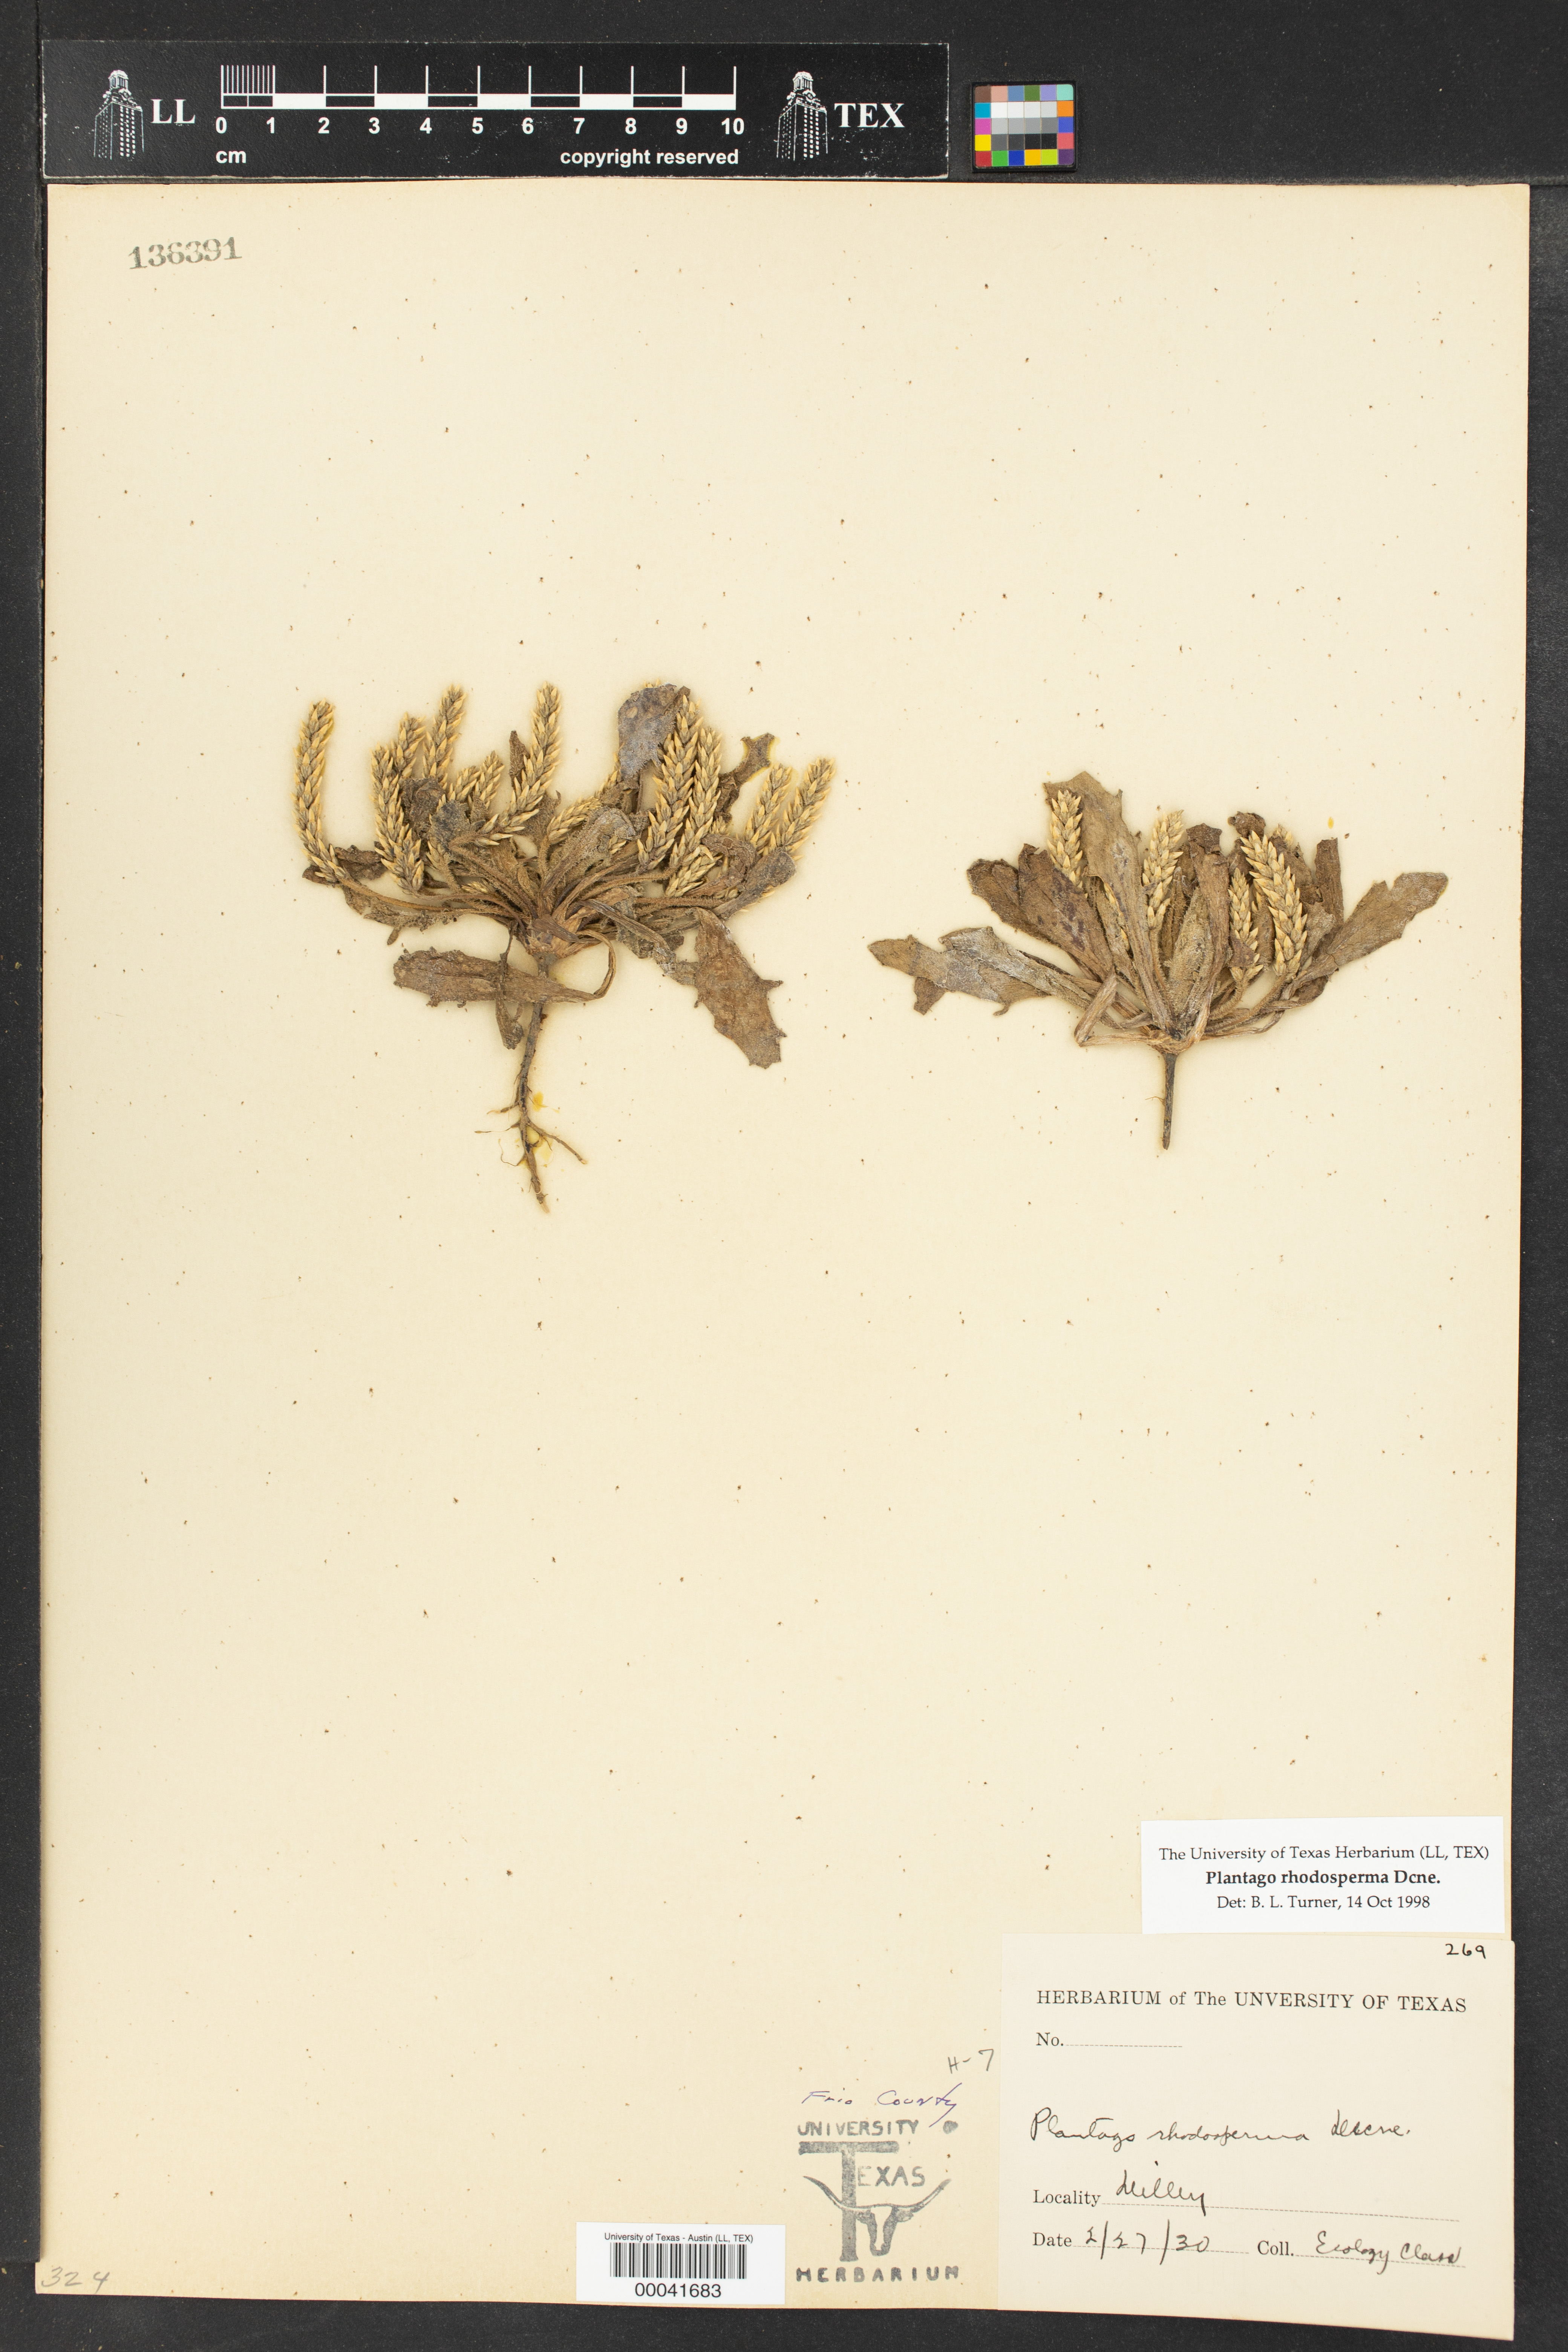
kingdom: Plantae
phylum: Tracheophyta
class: Magnoliopsida
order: Lamiales
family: Plantaginaceae
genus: Plantago
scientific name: Plantago rhodosperma
